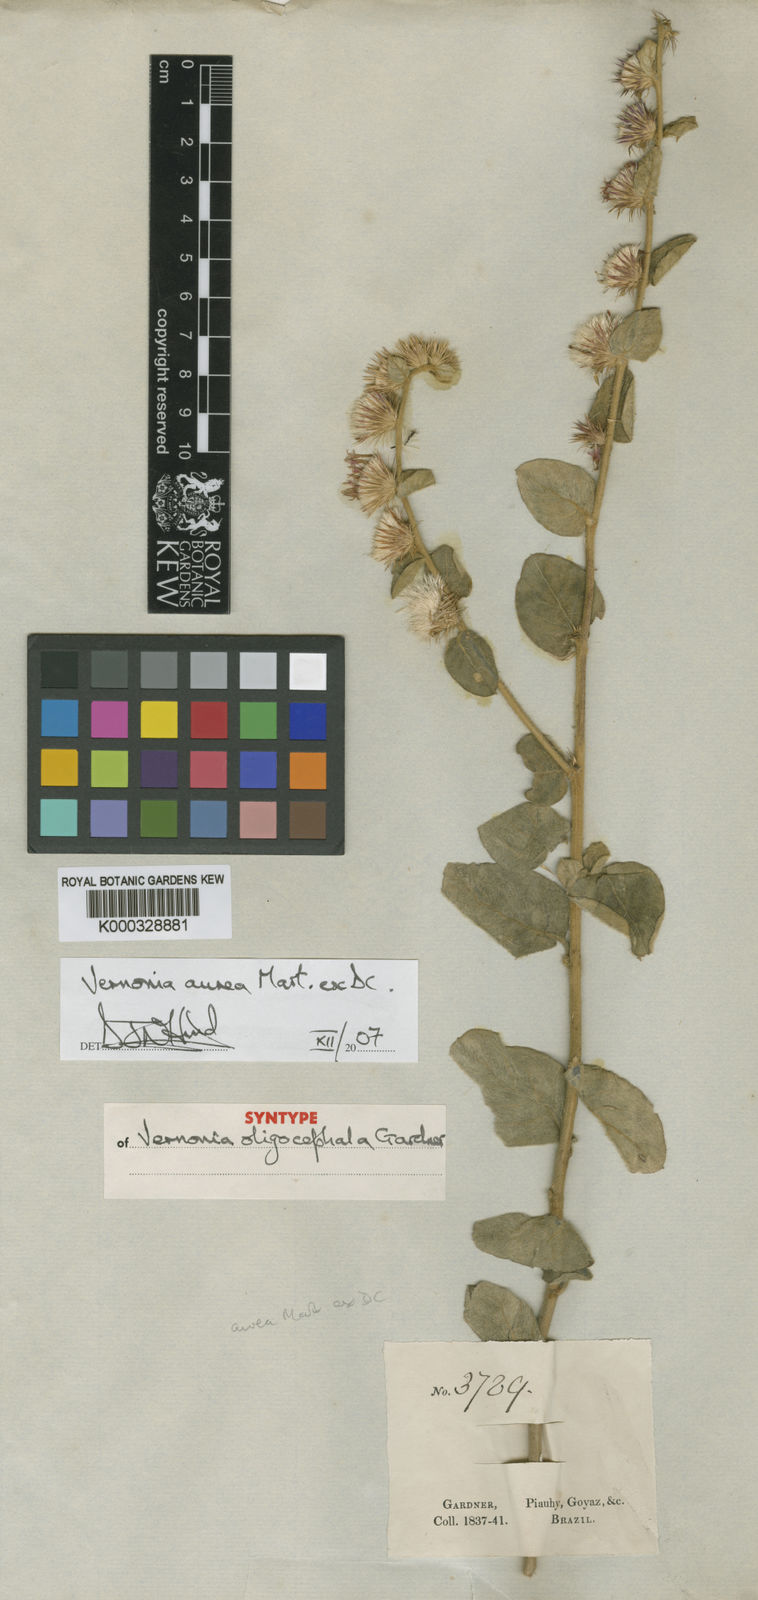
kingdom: Plantae
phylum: Tracheophyta
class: Magnoliopsida
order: Asterales
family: Asteraceae
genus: Lepidaploa
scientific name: Lepidaploa aurea
